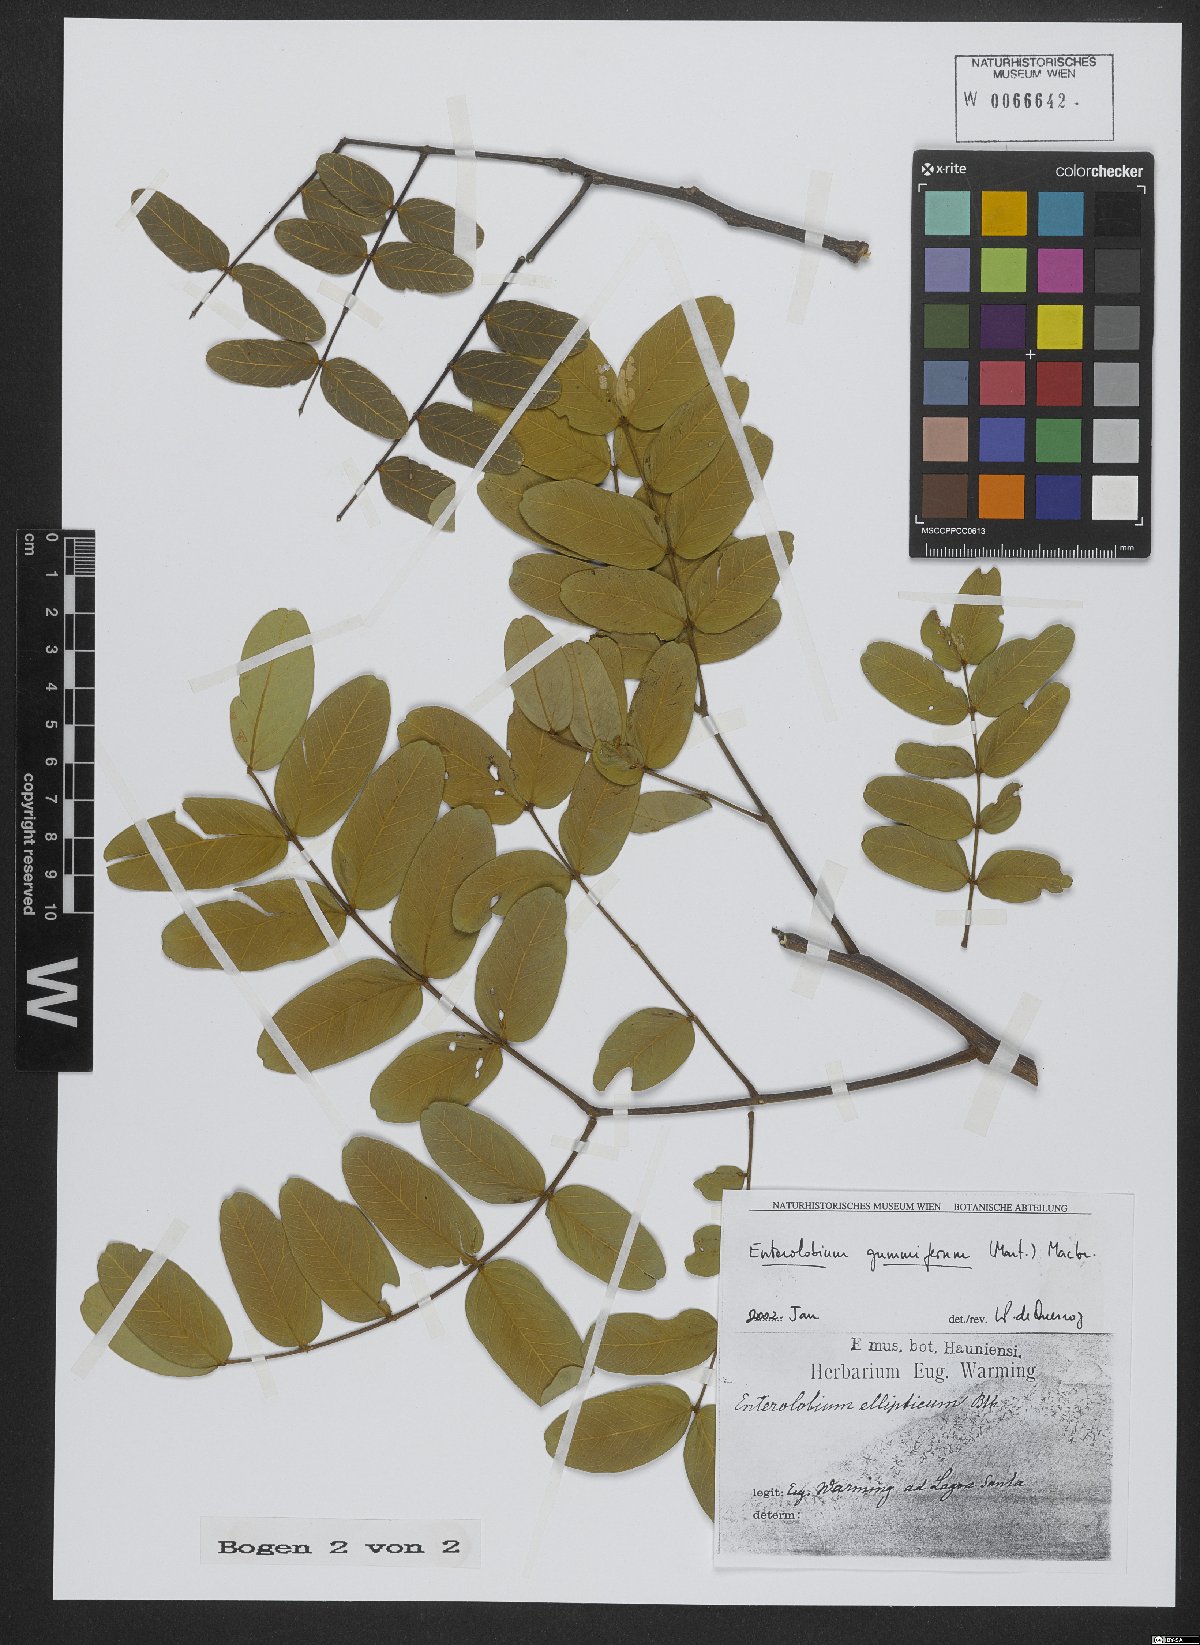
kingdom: Plantae
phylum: Tracheophyta
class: Magnoliopsida
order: Fabales
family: Fabaceae
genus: Enterolobium
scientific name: Enterolobium gummiferum
